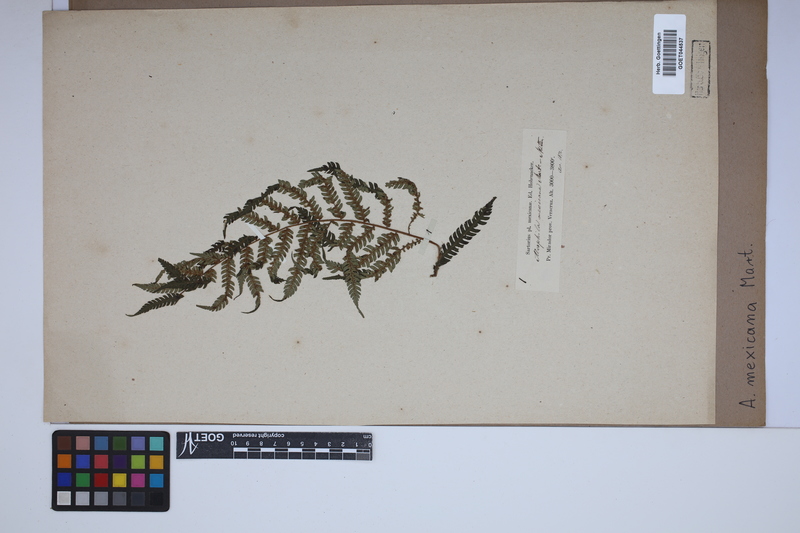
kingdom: Plantae
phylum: Tracheophyta
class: Polypodiopsida
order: Cyatheales
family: Cyatheaceae
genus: Cyathea
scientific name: Cyathea godmanii
